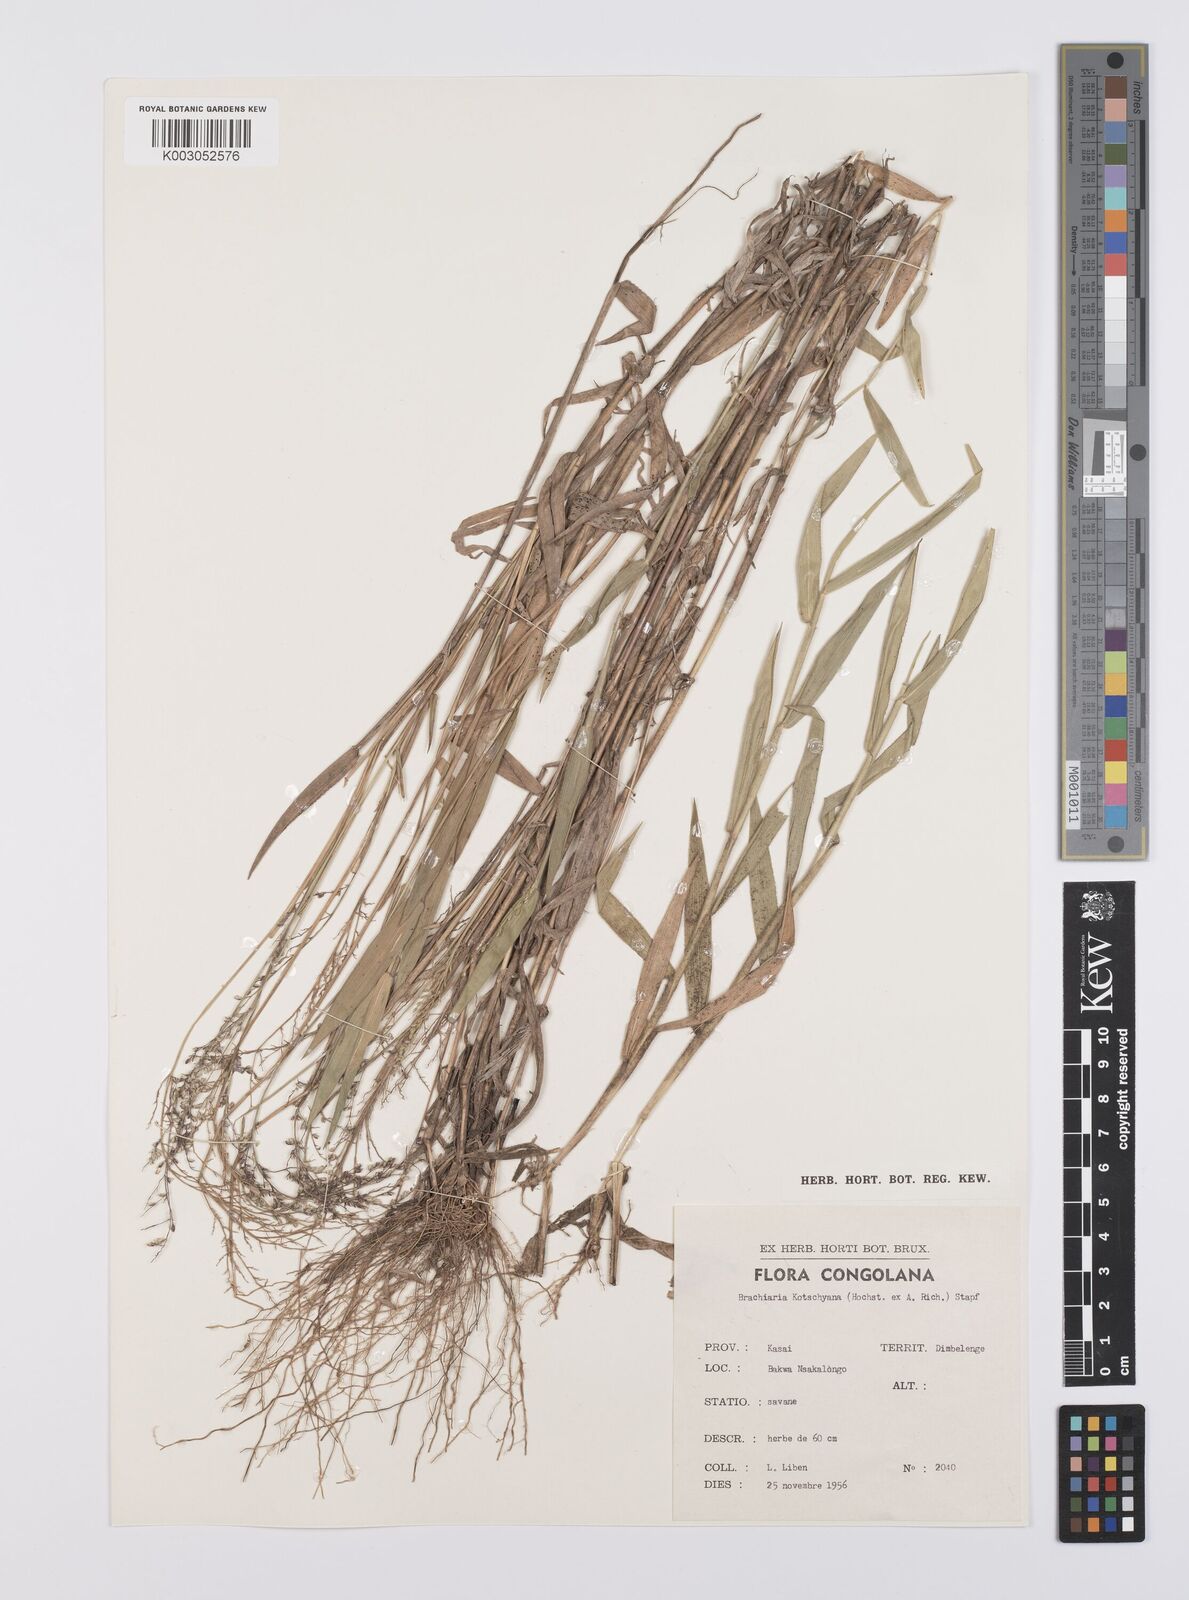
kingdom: Plantae
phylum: Tracheophyta
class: Liliopsida
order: Poales
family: Poaceae
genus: Urochloa
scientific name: Urochloa comata
